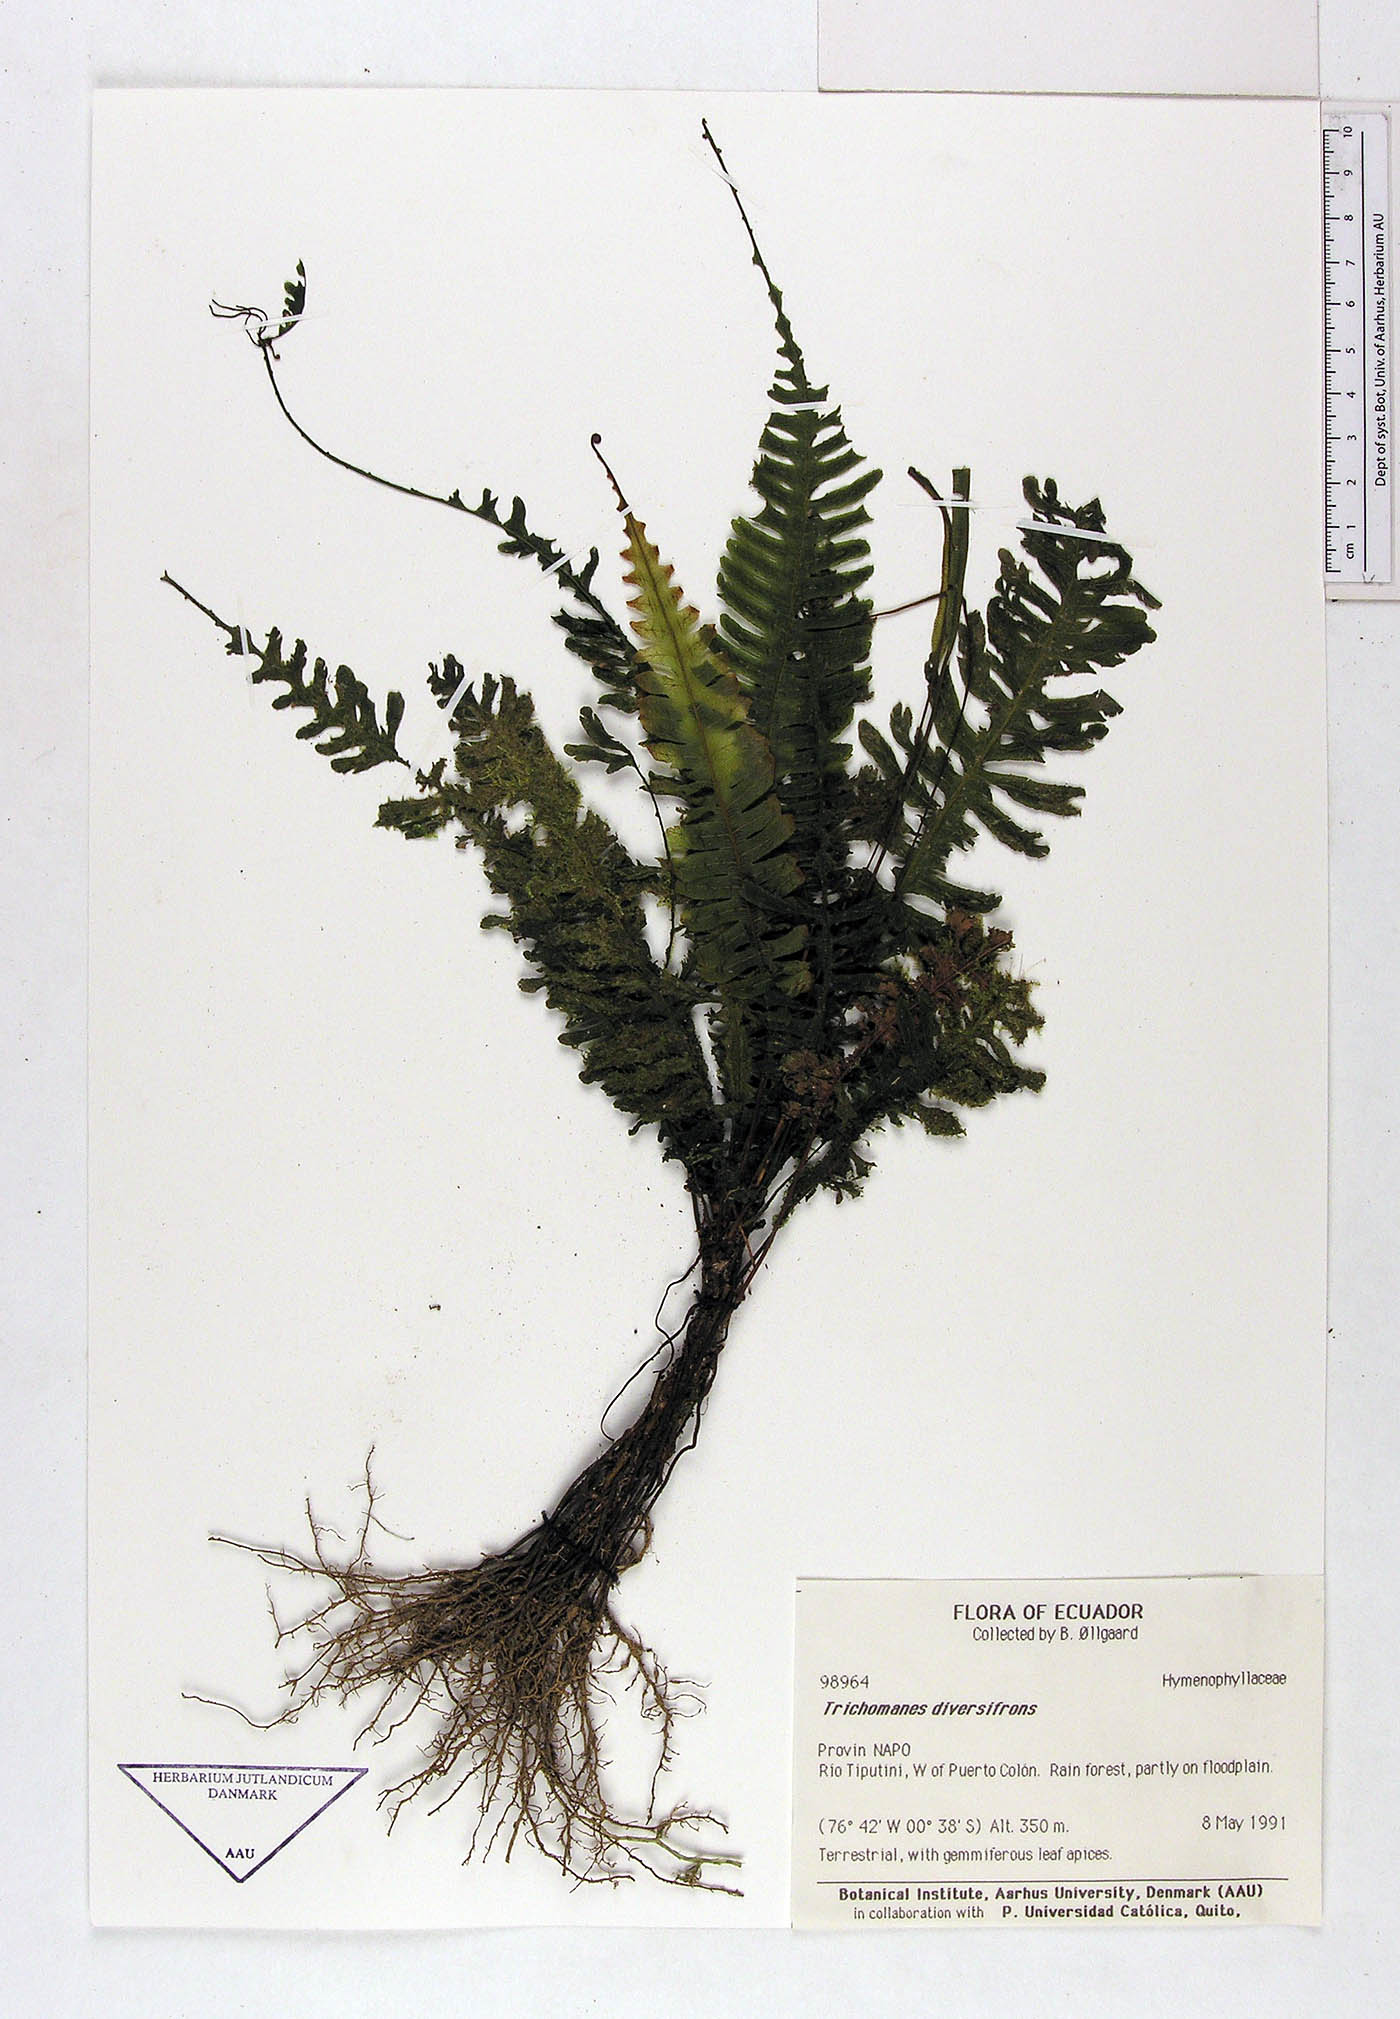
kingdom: Plantae
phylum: Tracheophyta
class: Polypodiopsida
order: Hymenophyllales
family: Hymenophyllaceae
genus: Trichomanes
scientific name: Trichomanes diversifrons
